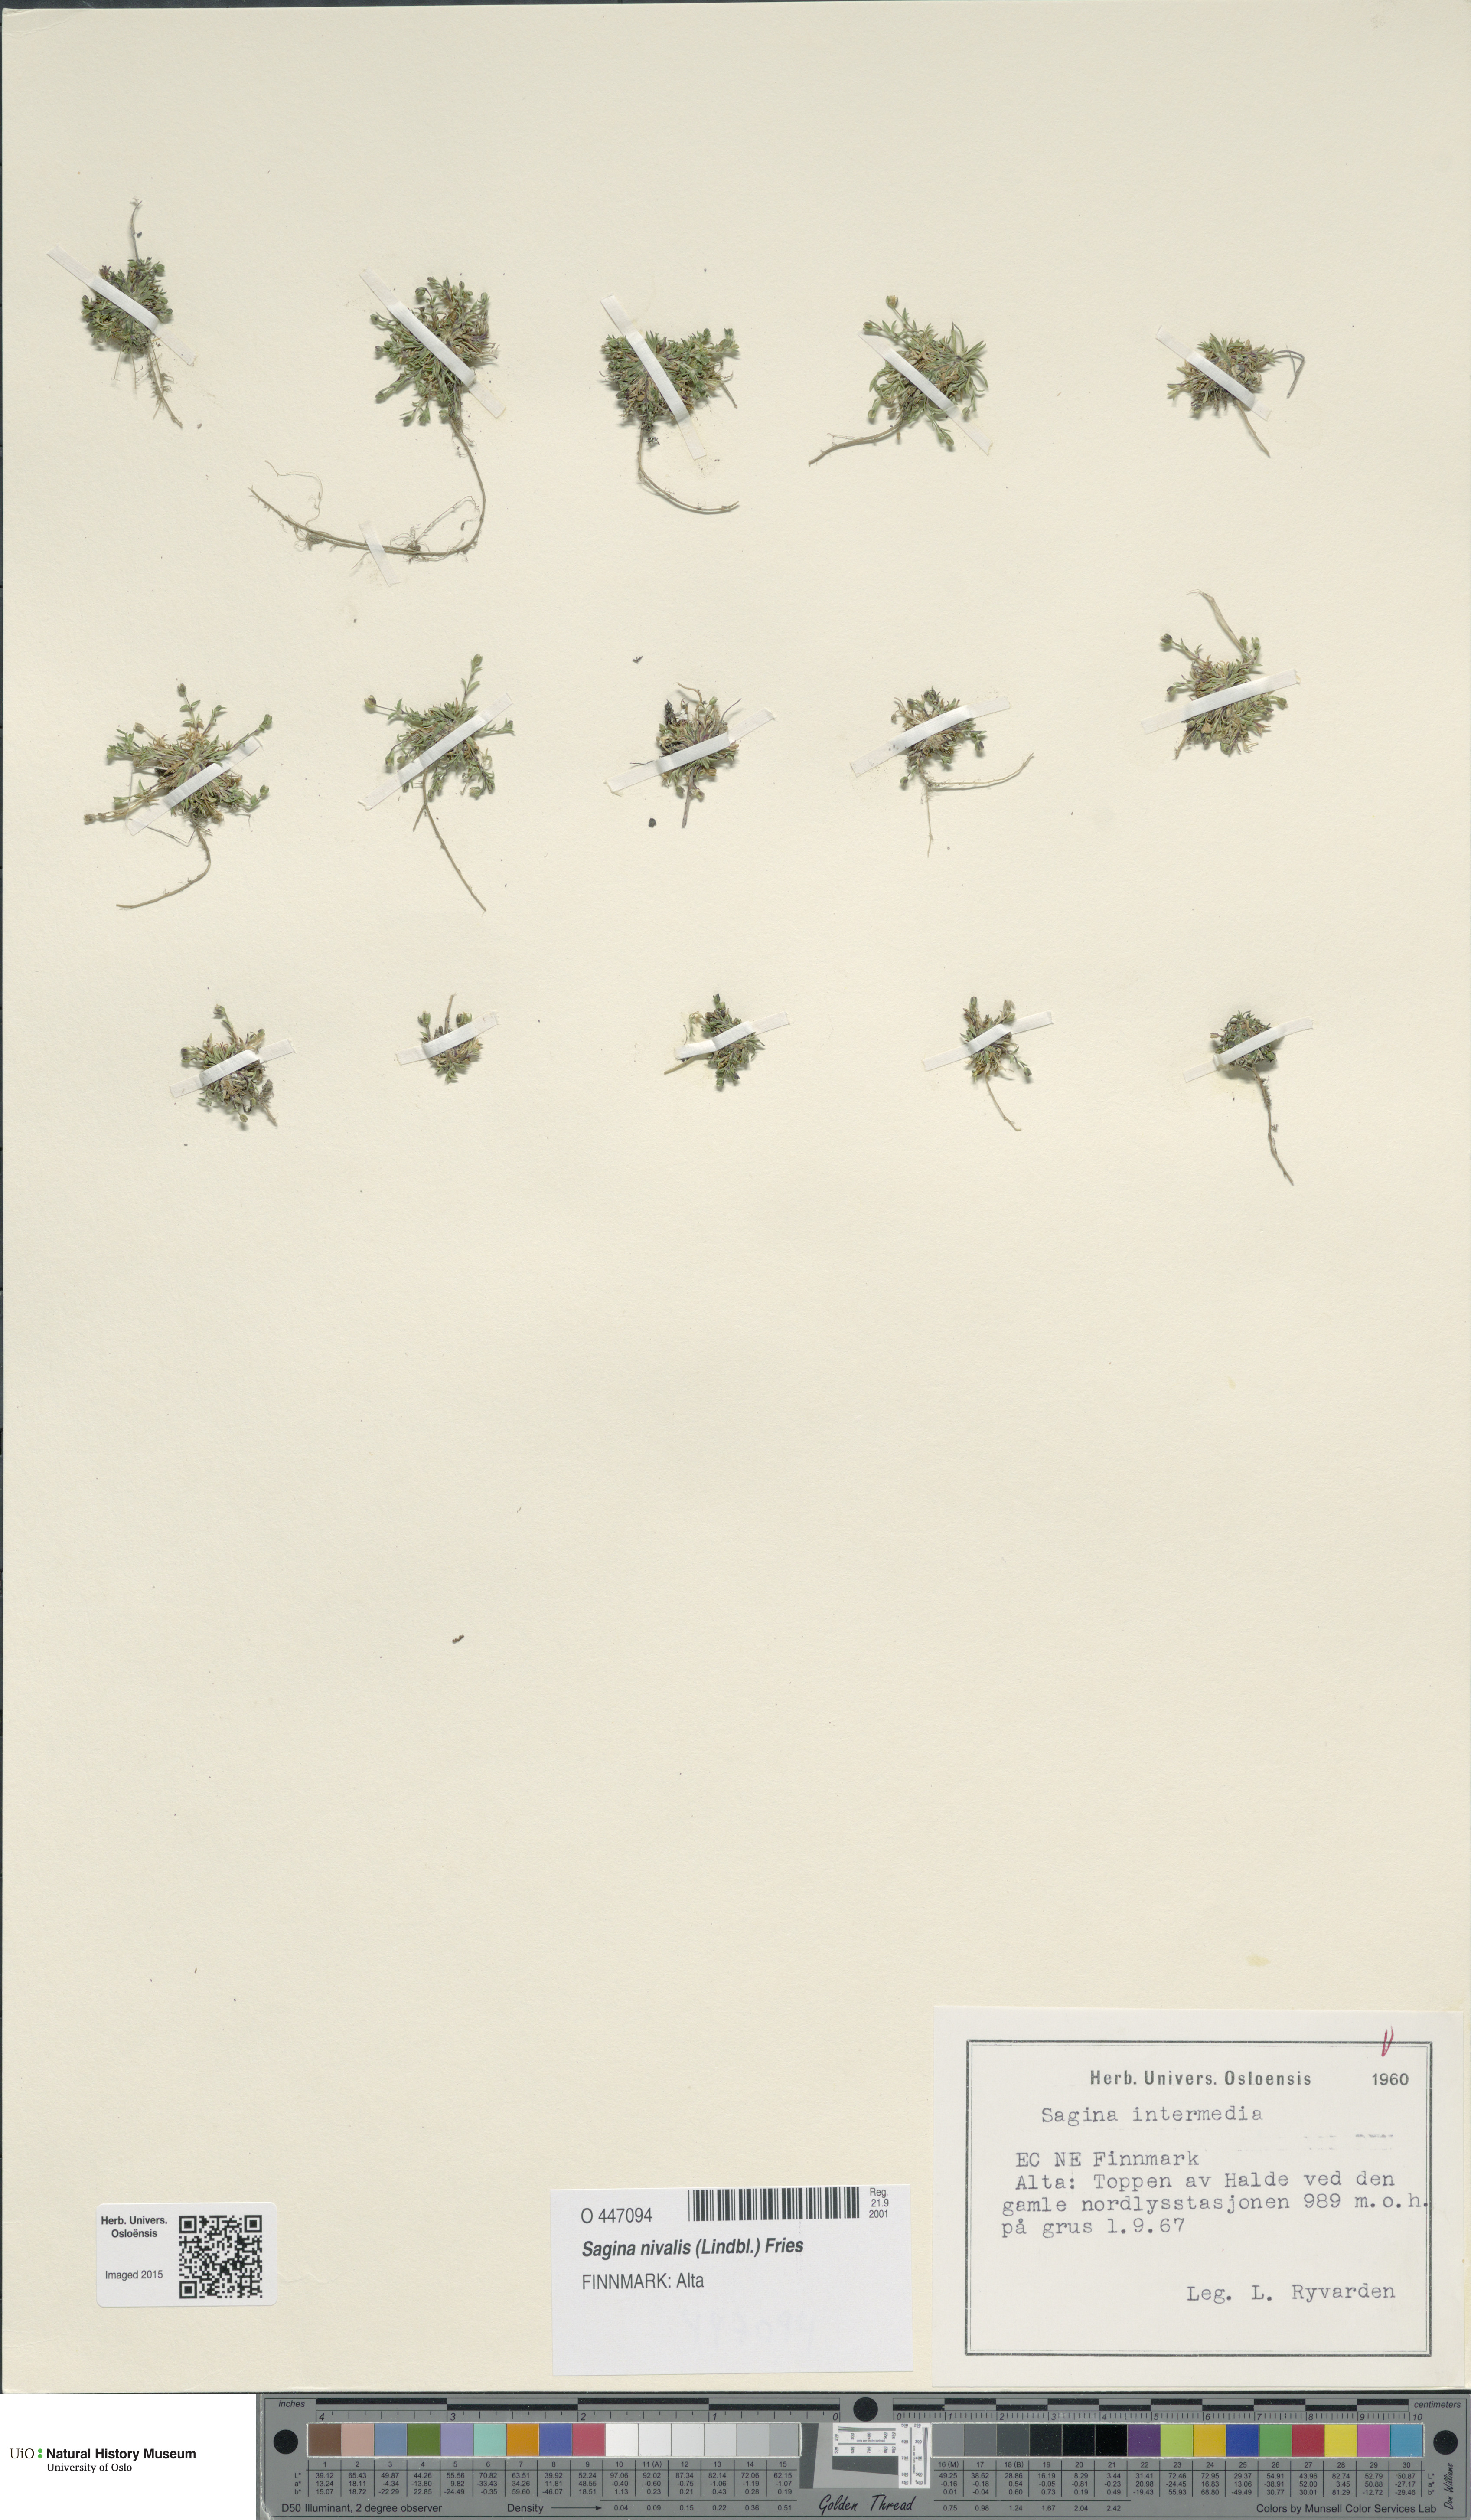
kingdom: Plantae
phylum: Tracheophyta
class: Magnoliopsida
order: Caryophyllales
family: Caryophyllaceae
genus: Sagina
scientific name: Sagina nivalis
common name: Snow pearlwort
